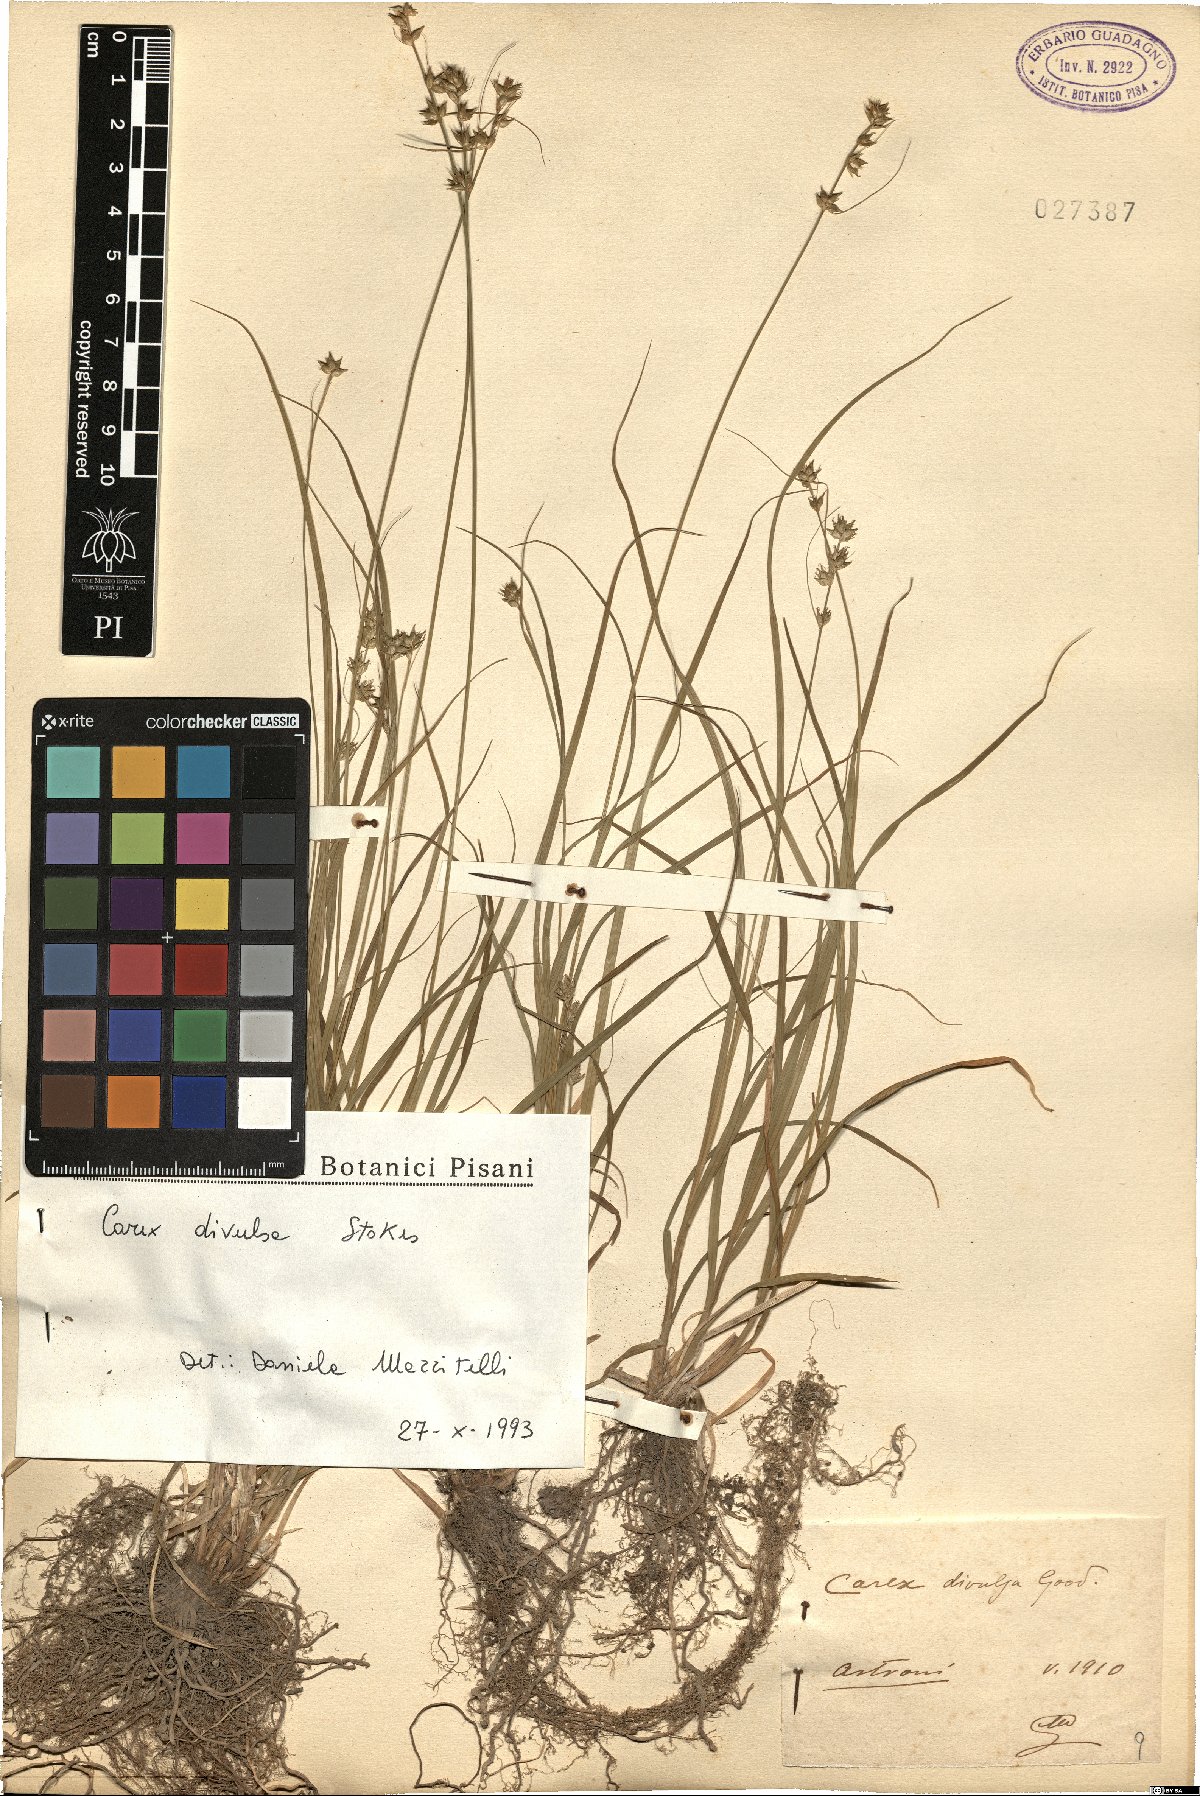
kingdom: Plantae
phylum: Tracheophyta
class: Liliopsida
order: Poales
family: Cyperaceae
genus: Carex
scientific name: Carex divulsa
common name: Grassland sedge
